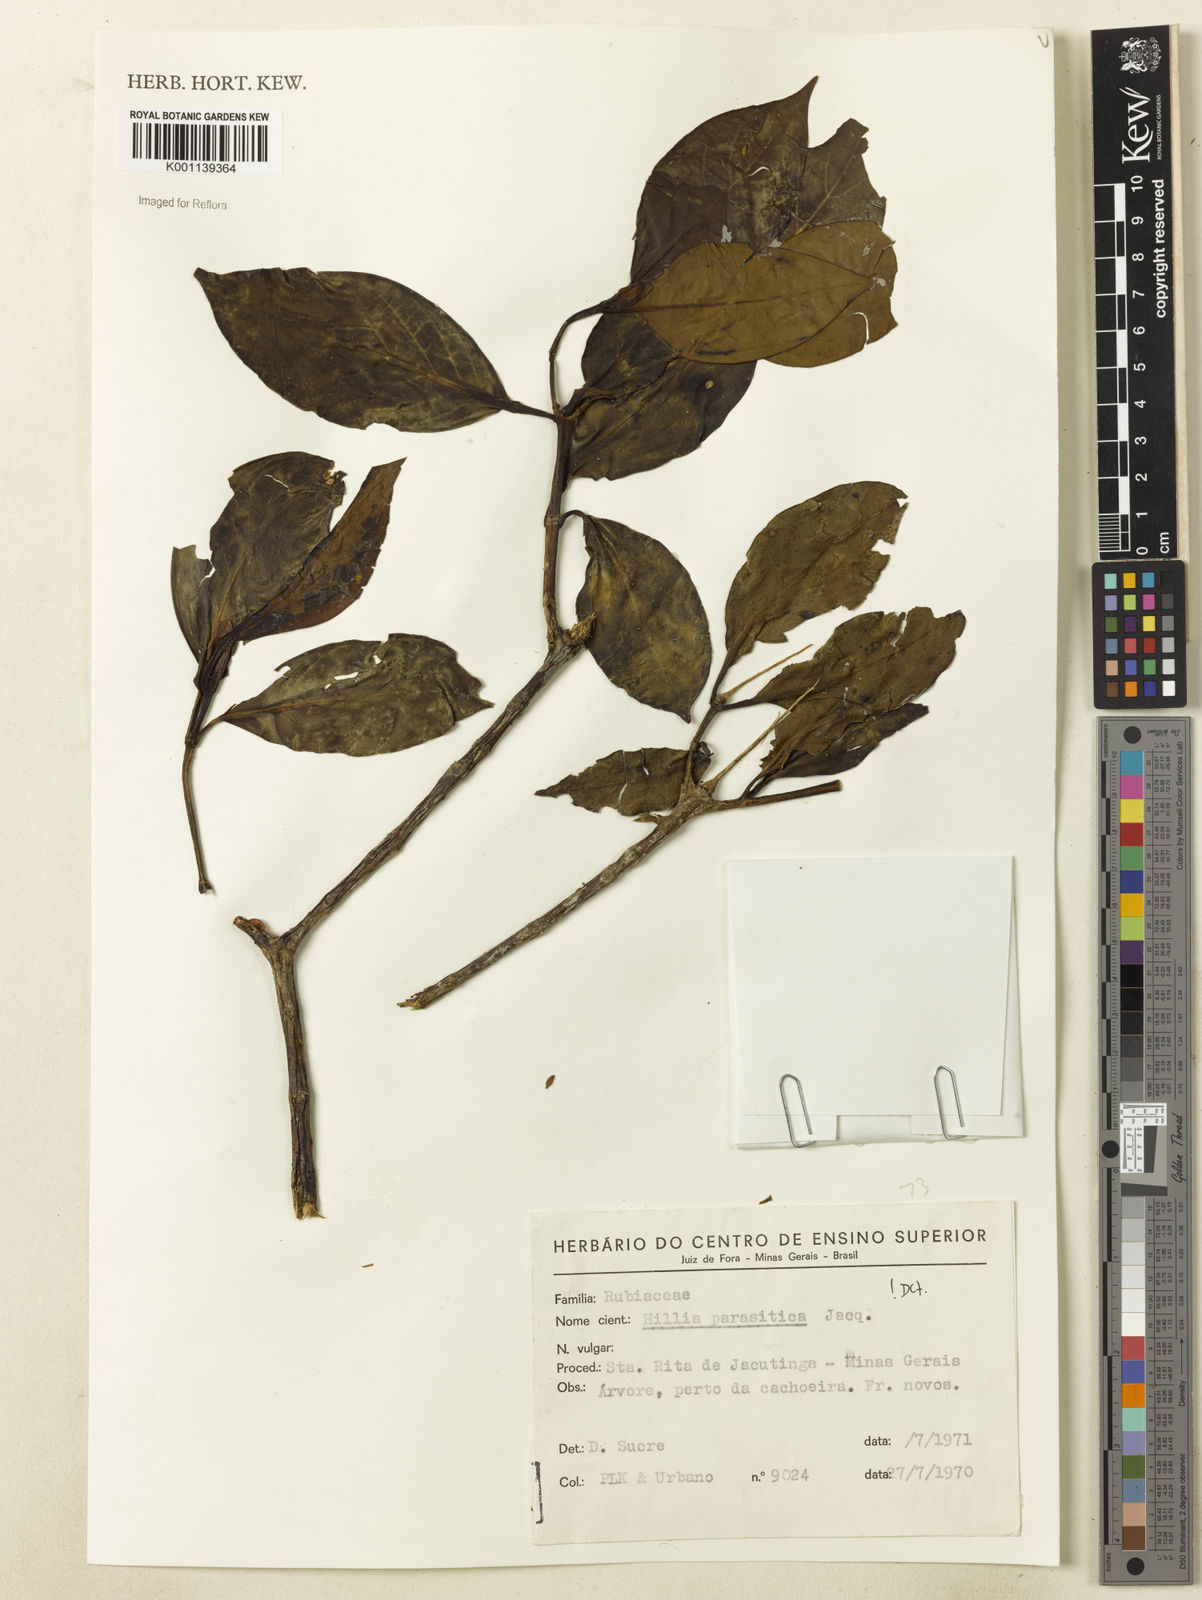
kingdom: Plantae
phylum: Tracheophyta
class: Magnoliopsida
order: Gentianales
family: Rubiaceae
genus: Hillia
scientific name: Hillia parasitica
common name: Morning star
